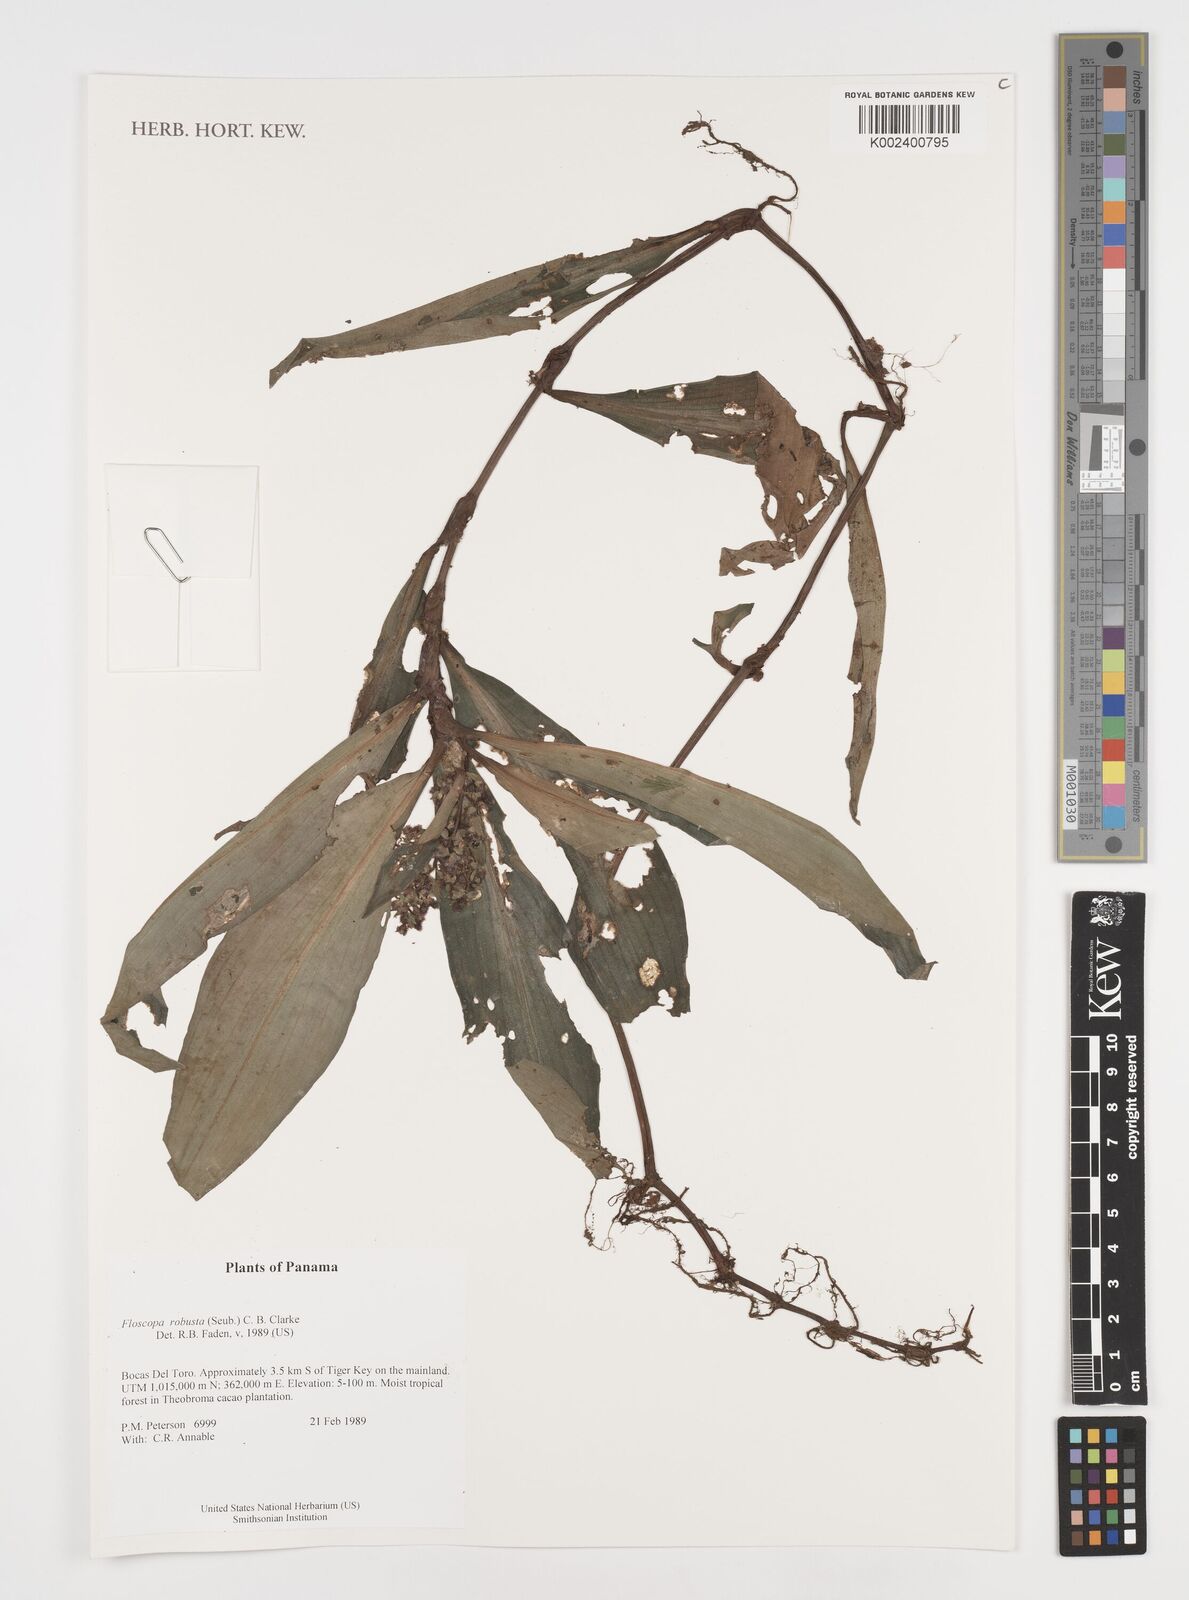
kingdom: Plantae
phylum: Tracheophyta
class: Liliopsida
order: Commelinales
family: Commelinaceae
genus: Floscopa
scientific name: Floscopa robusta
